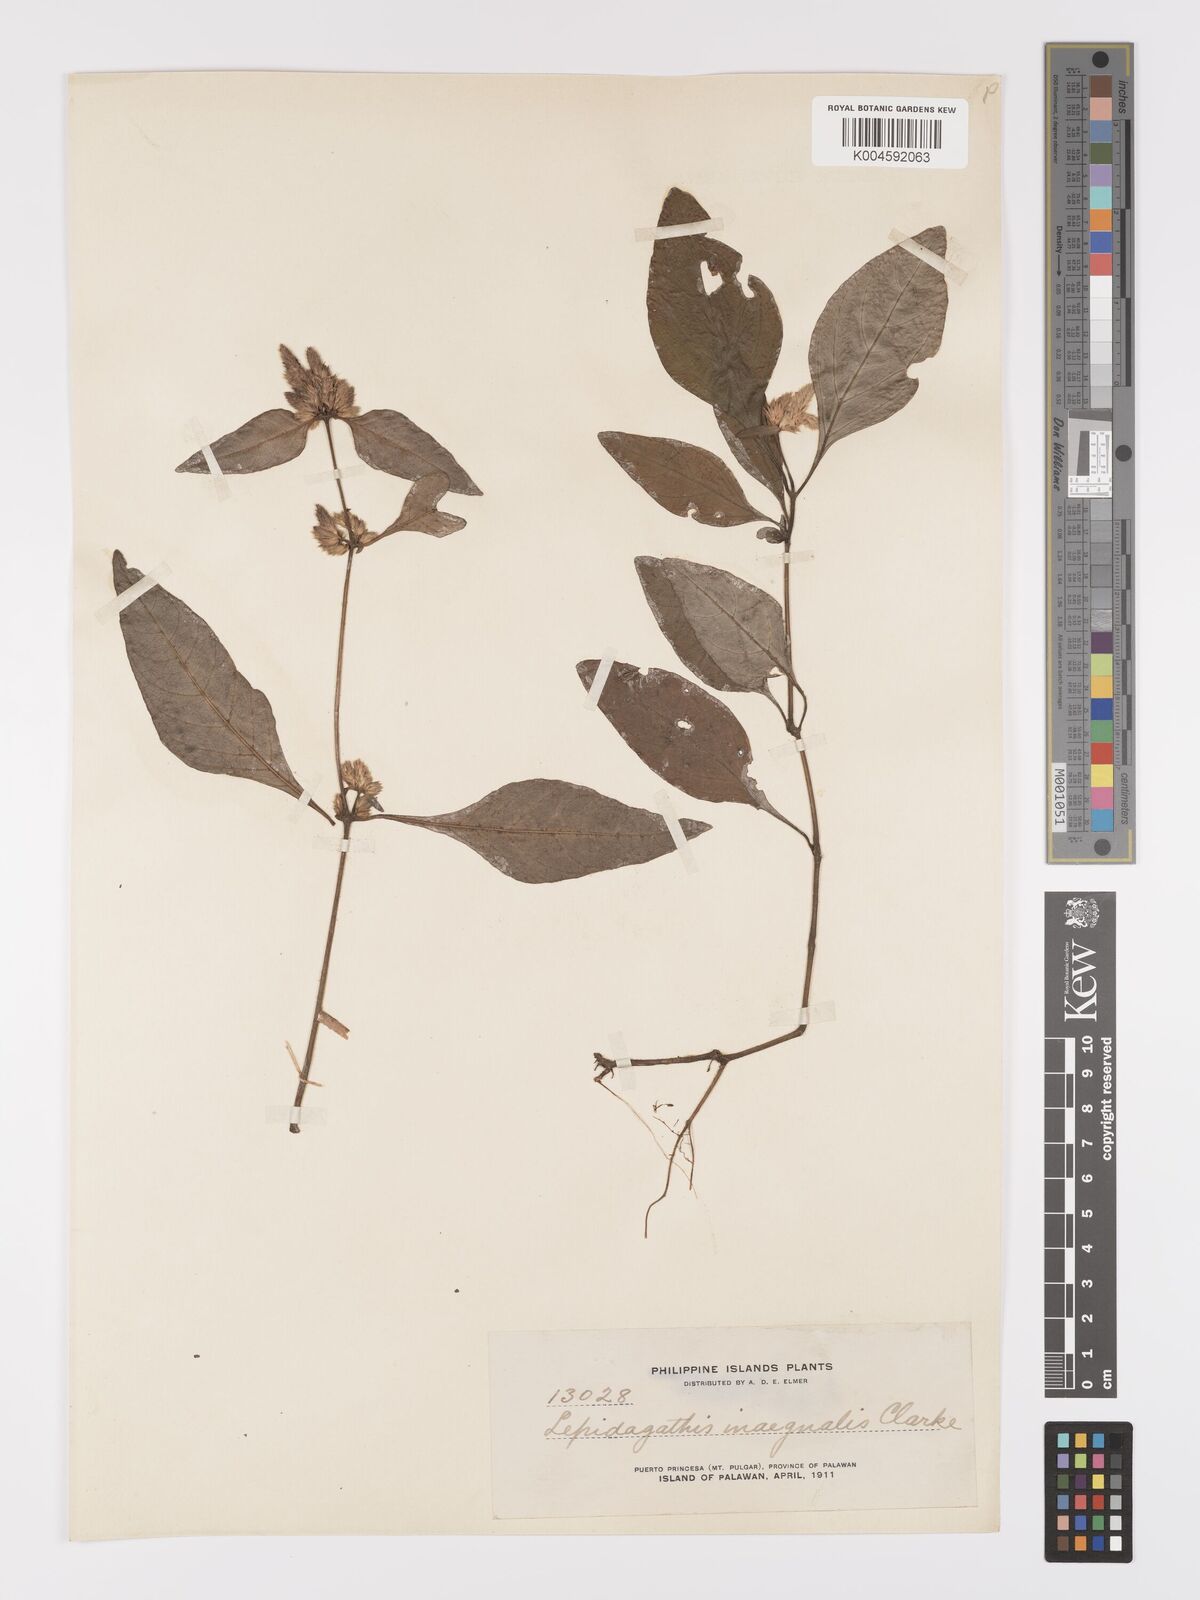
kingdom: Plantae
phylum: Tracheophyta
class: Magnoliopsida
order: Lamiales
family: Acanthaceae
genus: Lepidagathis
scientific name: Lepidagathis inaequalis
